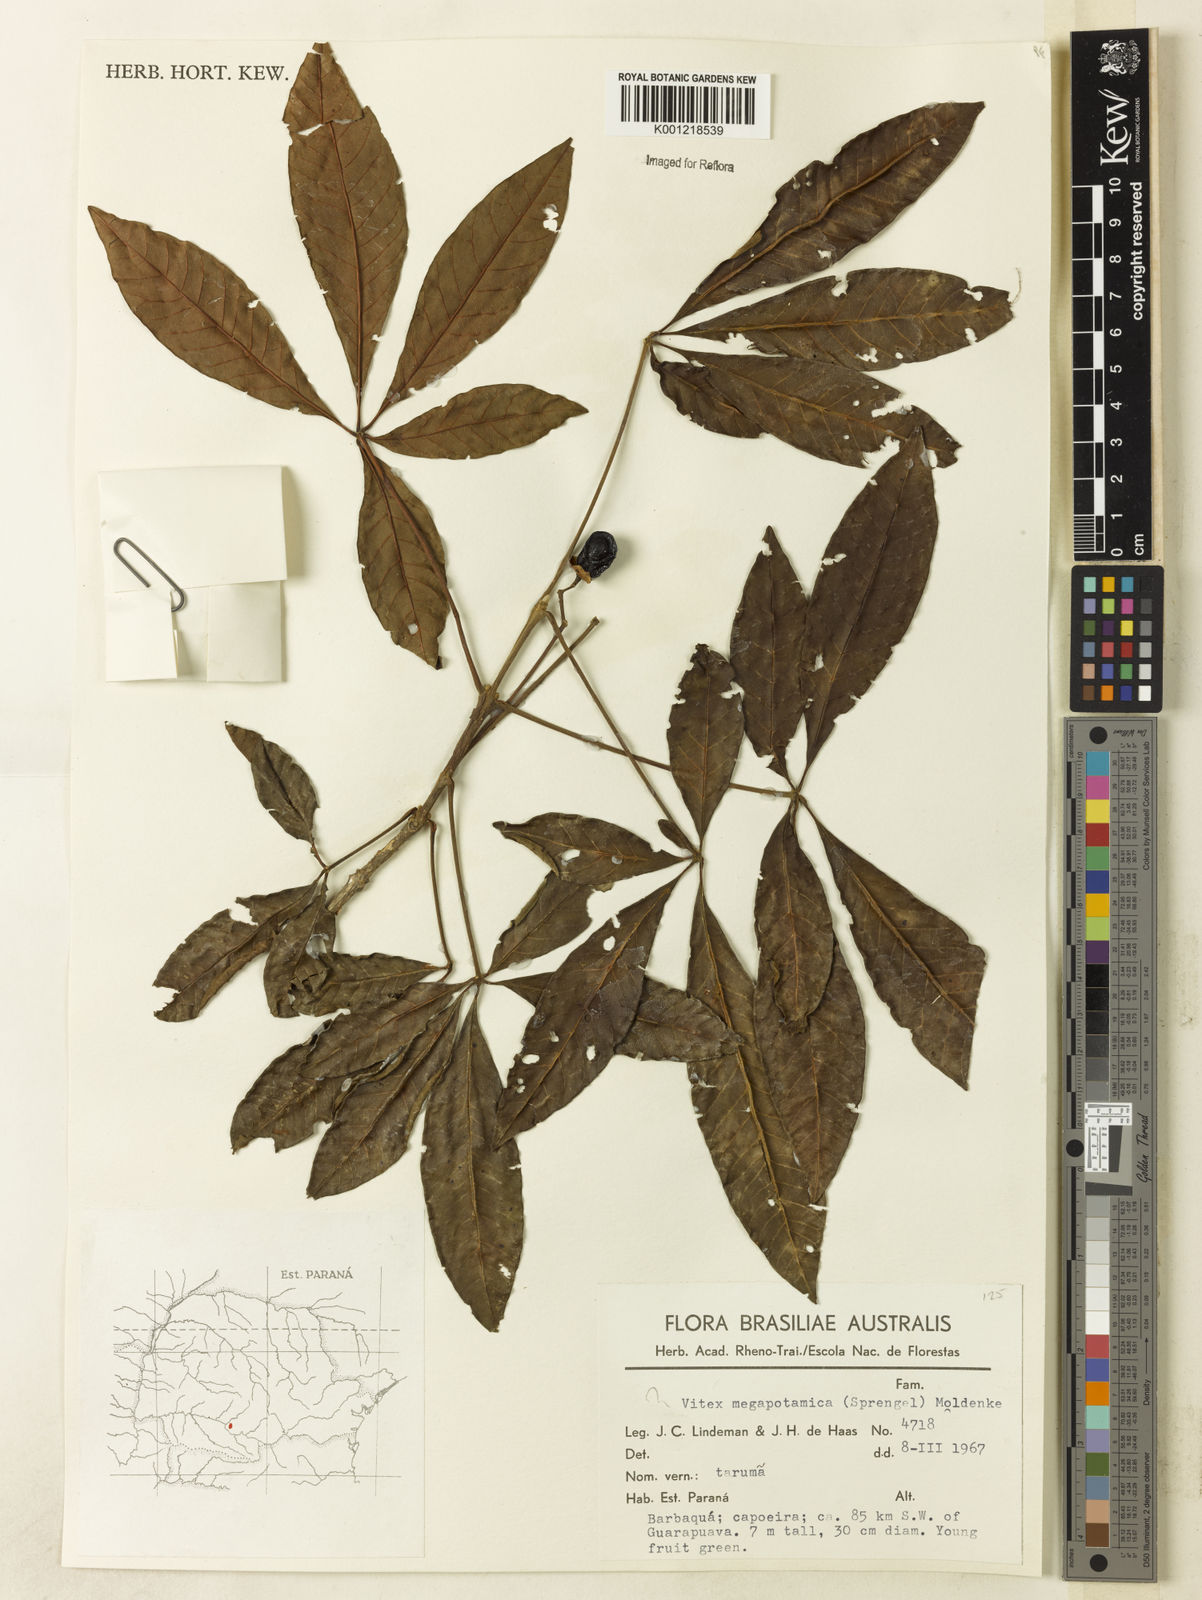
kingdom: Plantae
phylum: Tracheophyta
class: Magnoliopsida
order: Lamiales
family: Lamiaceae
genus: Vitex
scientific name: Vitex megapotamica
